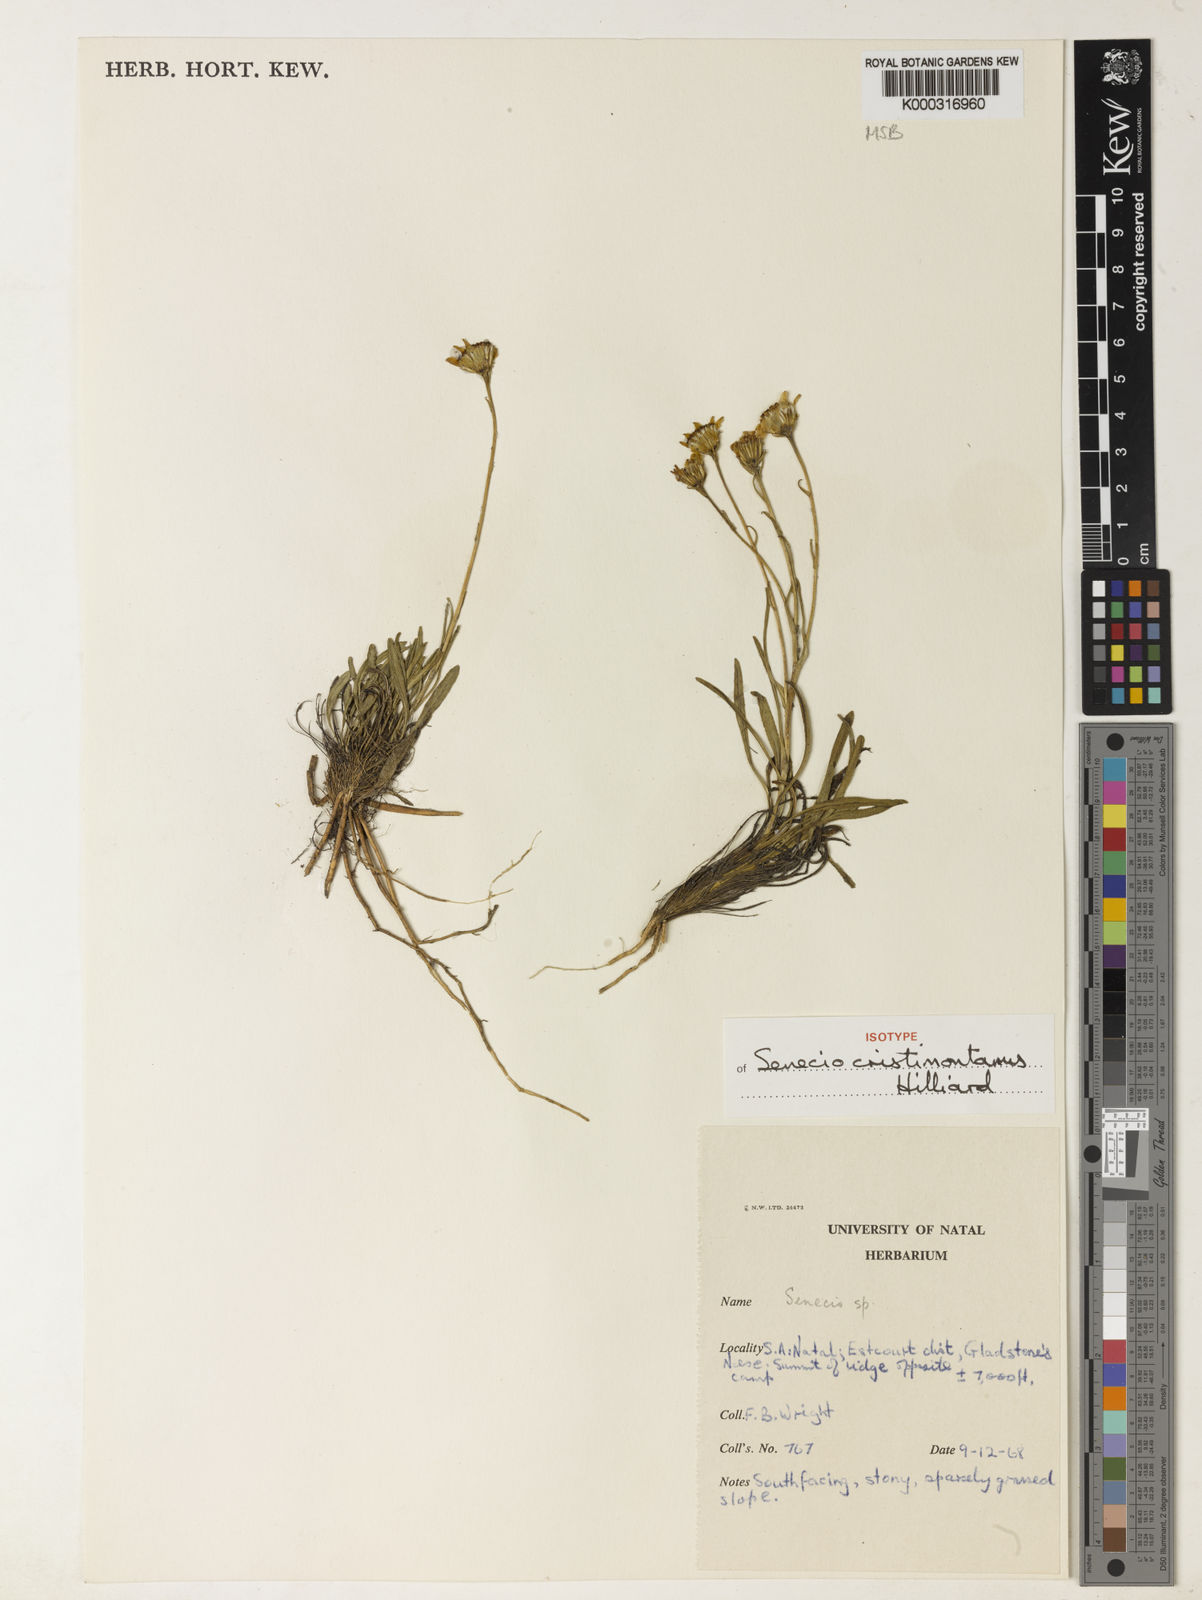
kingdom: Plantae
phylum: Tracheophyta
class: Magnoliopsida
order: Asterales
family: Asteraceae
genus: Senecio
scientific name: Senecio cristimontanus
